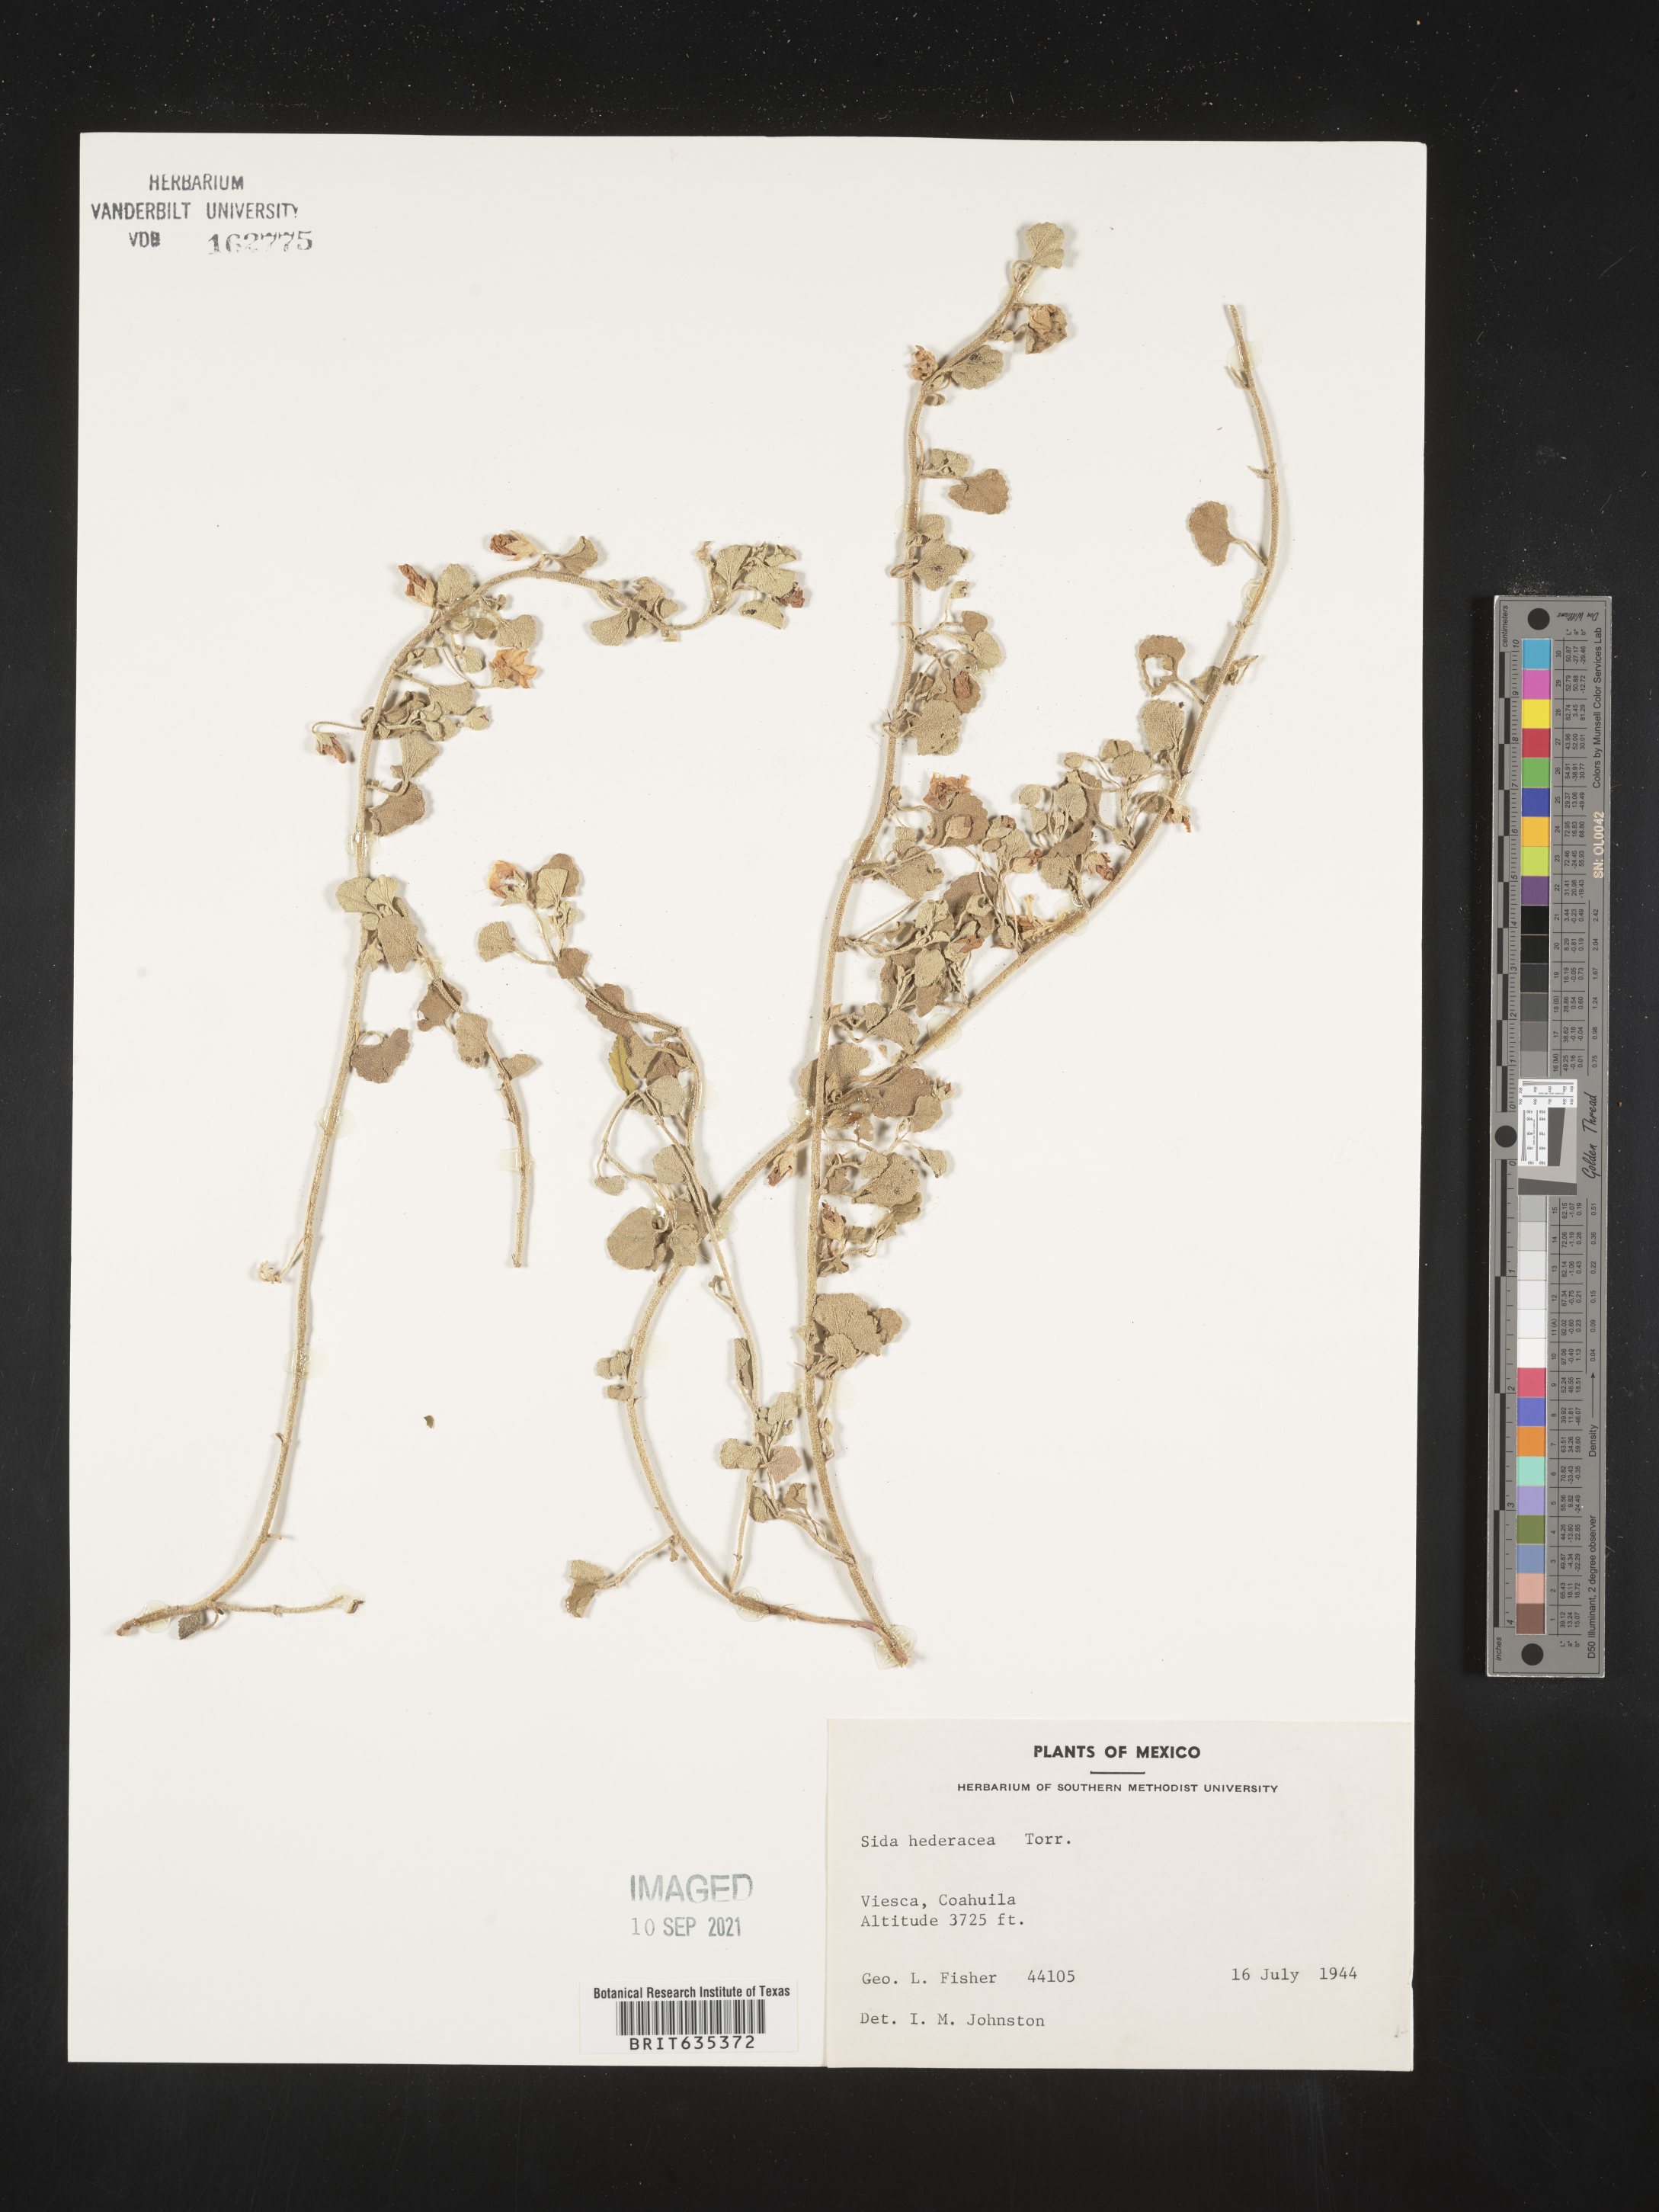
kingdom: Plantae
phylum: Tracheophyta
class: Magnoliopsida
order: Malvales
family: Malvaceae
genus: Sida
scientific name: Sida
